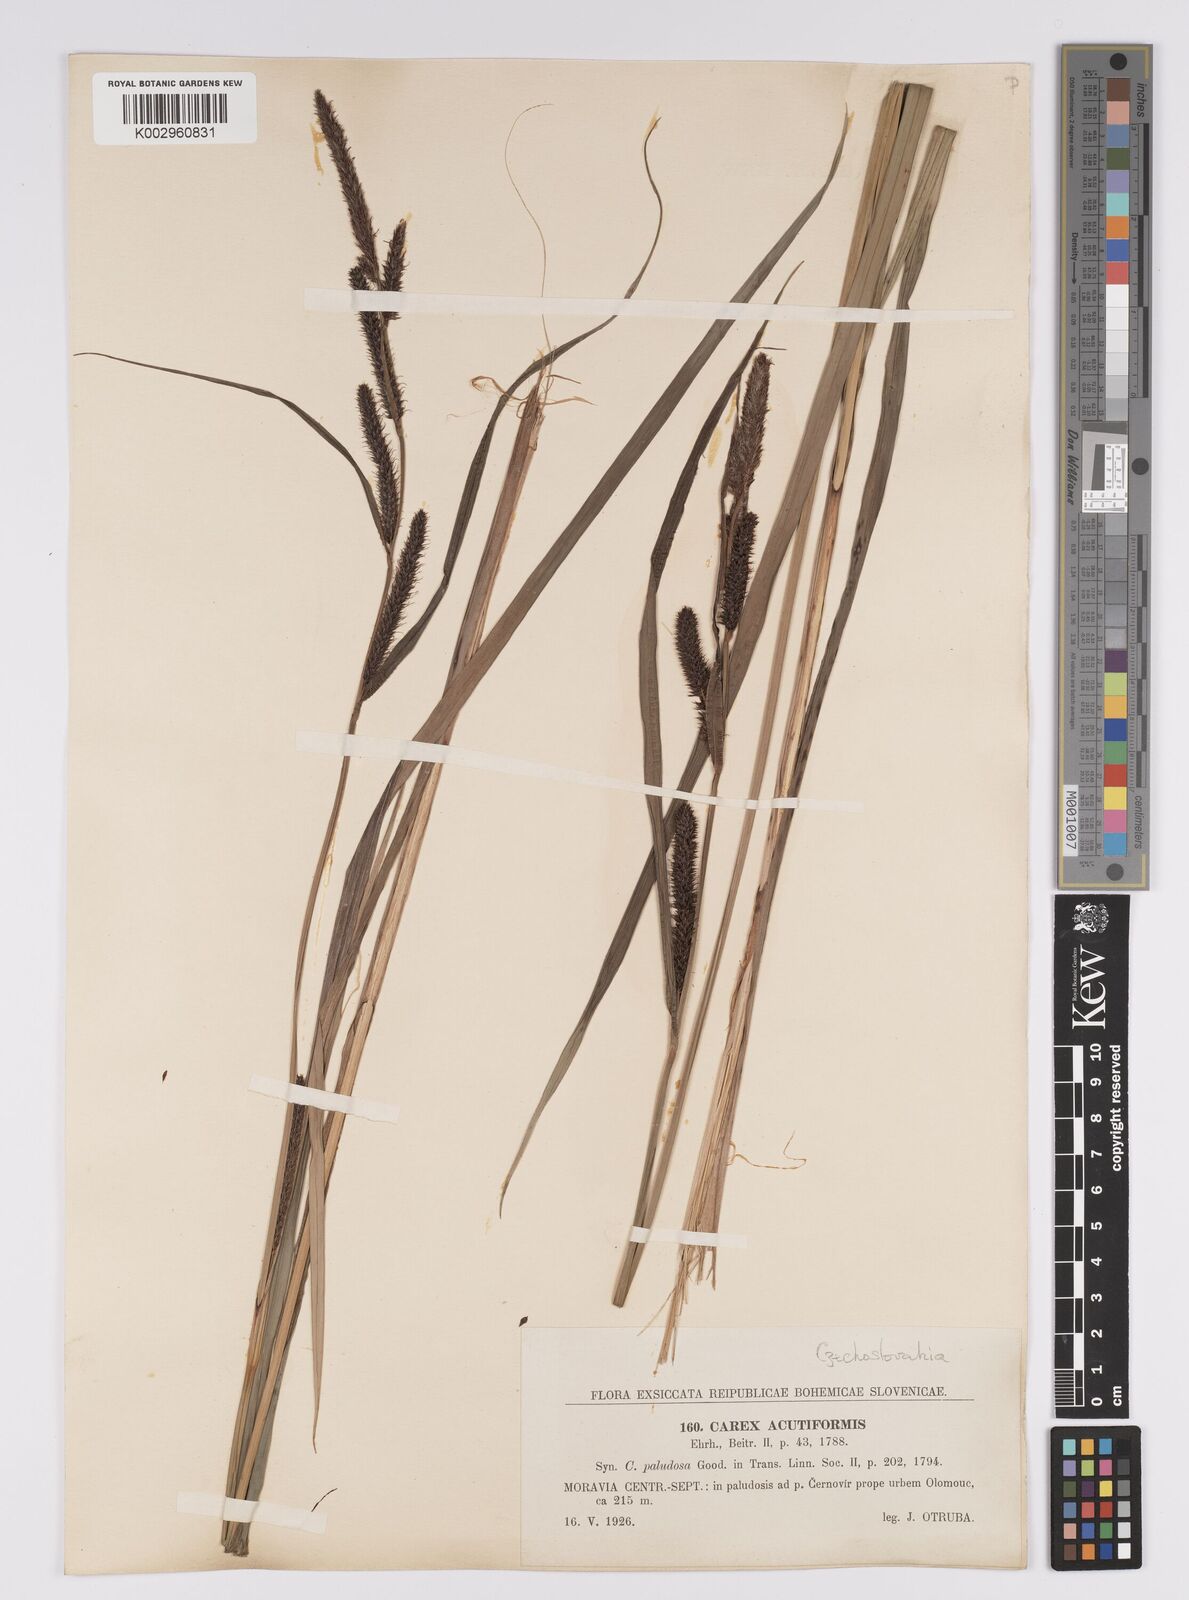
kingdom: Plantae
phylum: Tracheophyta
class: Liliopsida
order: Poales
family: Cyperaceae
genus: Carex
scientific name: Carex acutiformis
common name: Lesser pond-sedge
